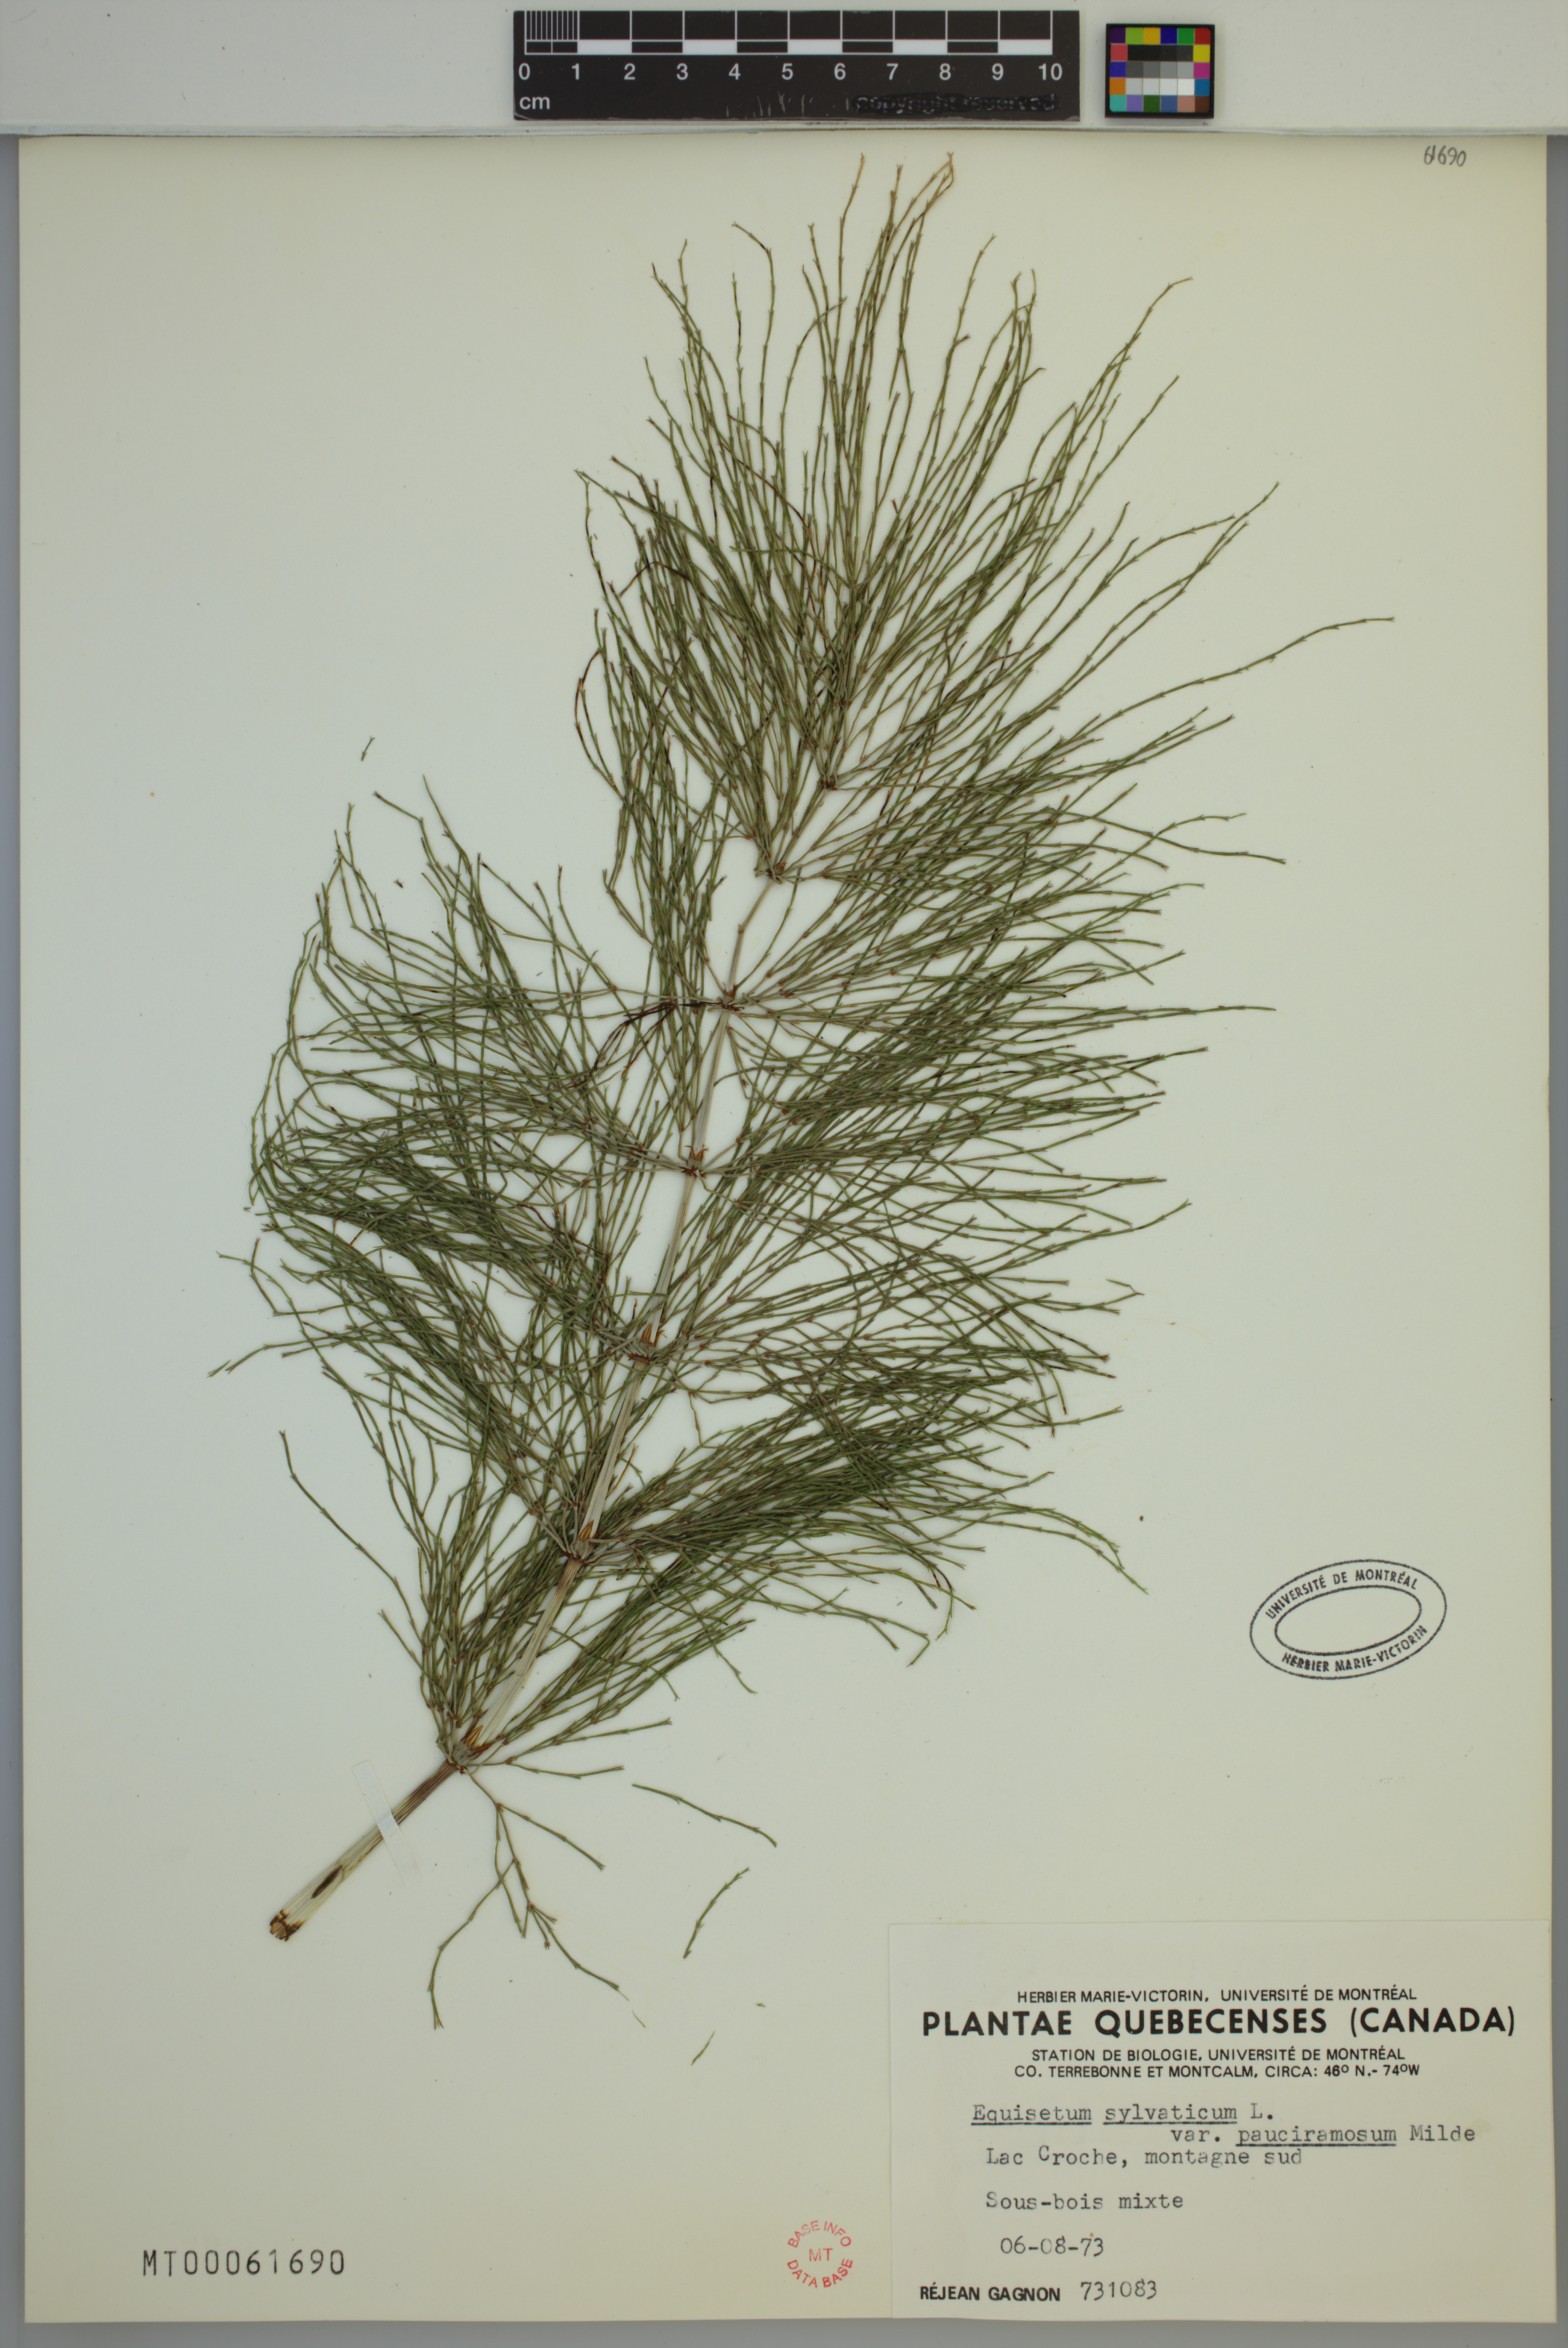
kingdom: Plantae
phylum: Tracheophyta
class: Polypodiopsida
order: Equisetales
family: Equisetaceae
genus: Equisetum
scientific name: Equisetum sylvaticum
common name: Wood horsetail
